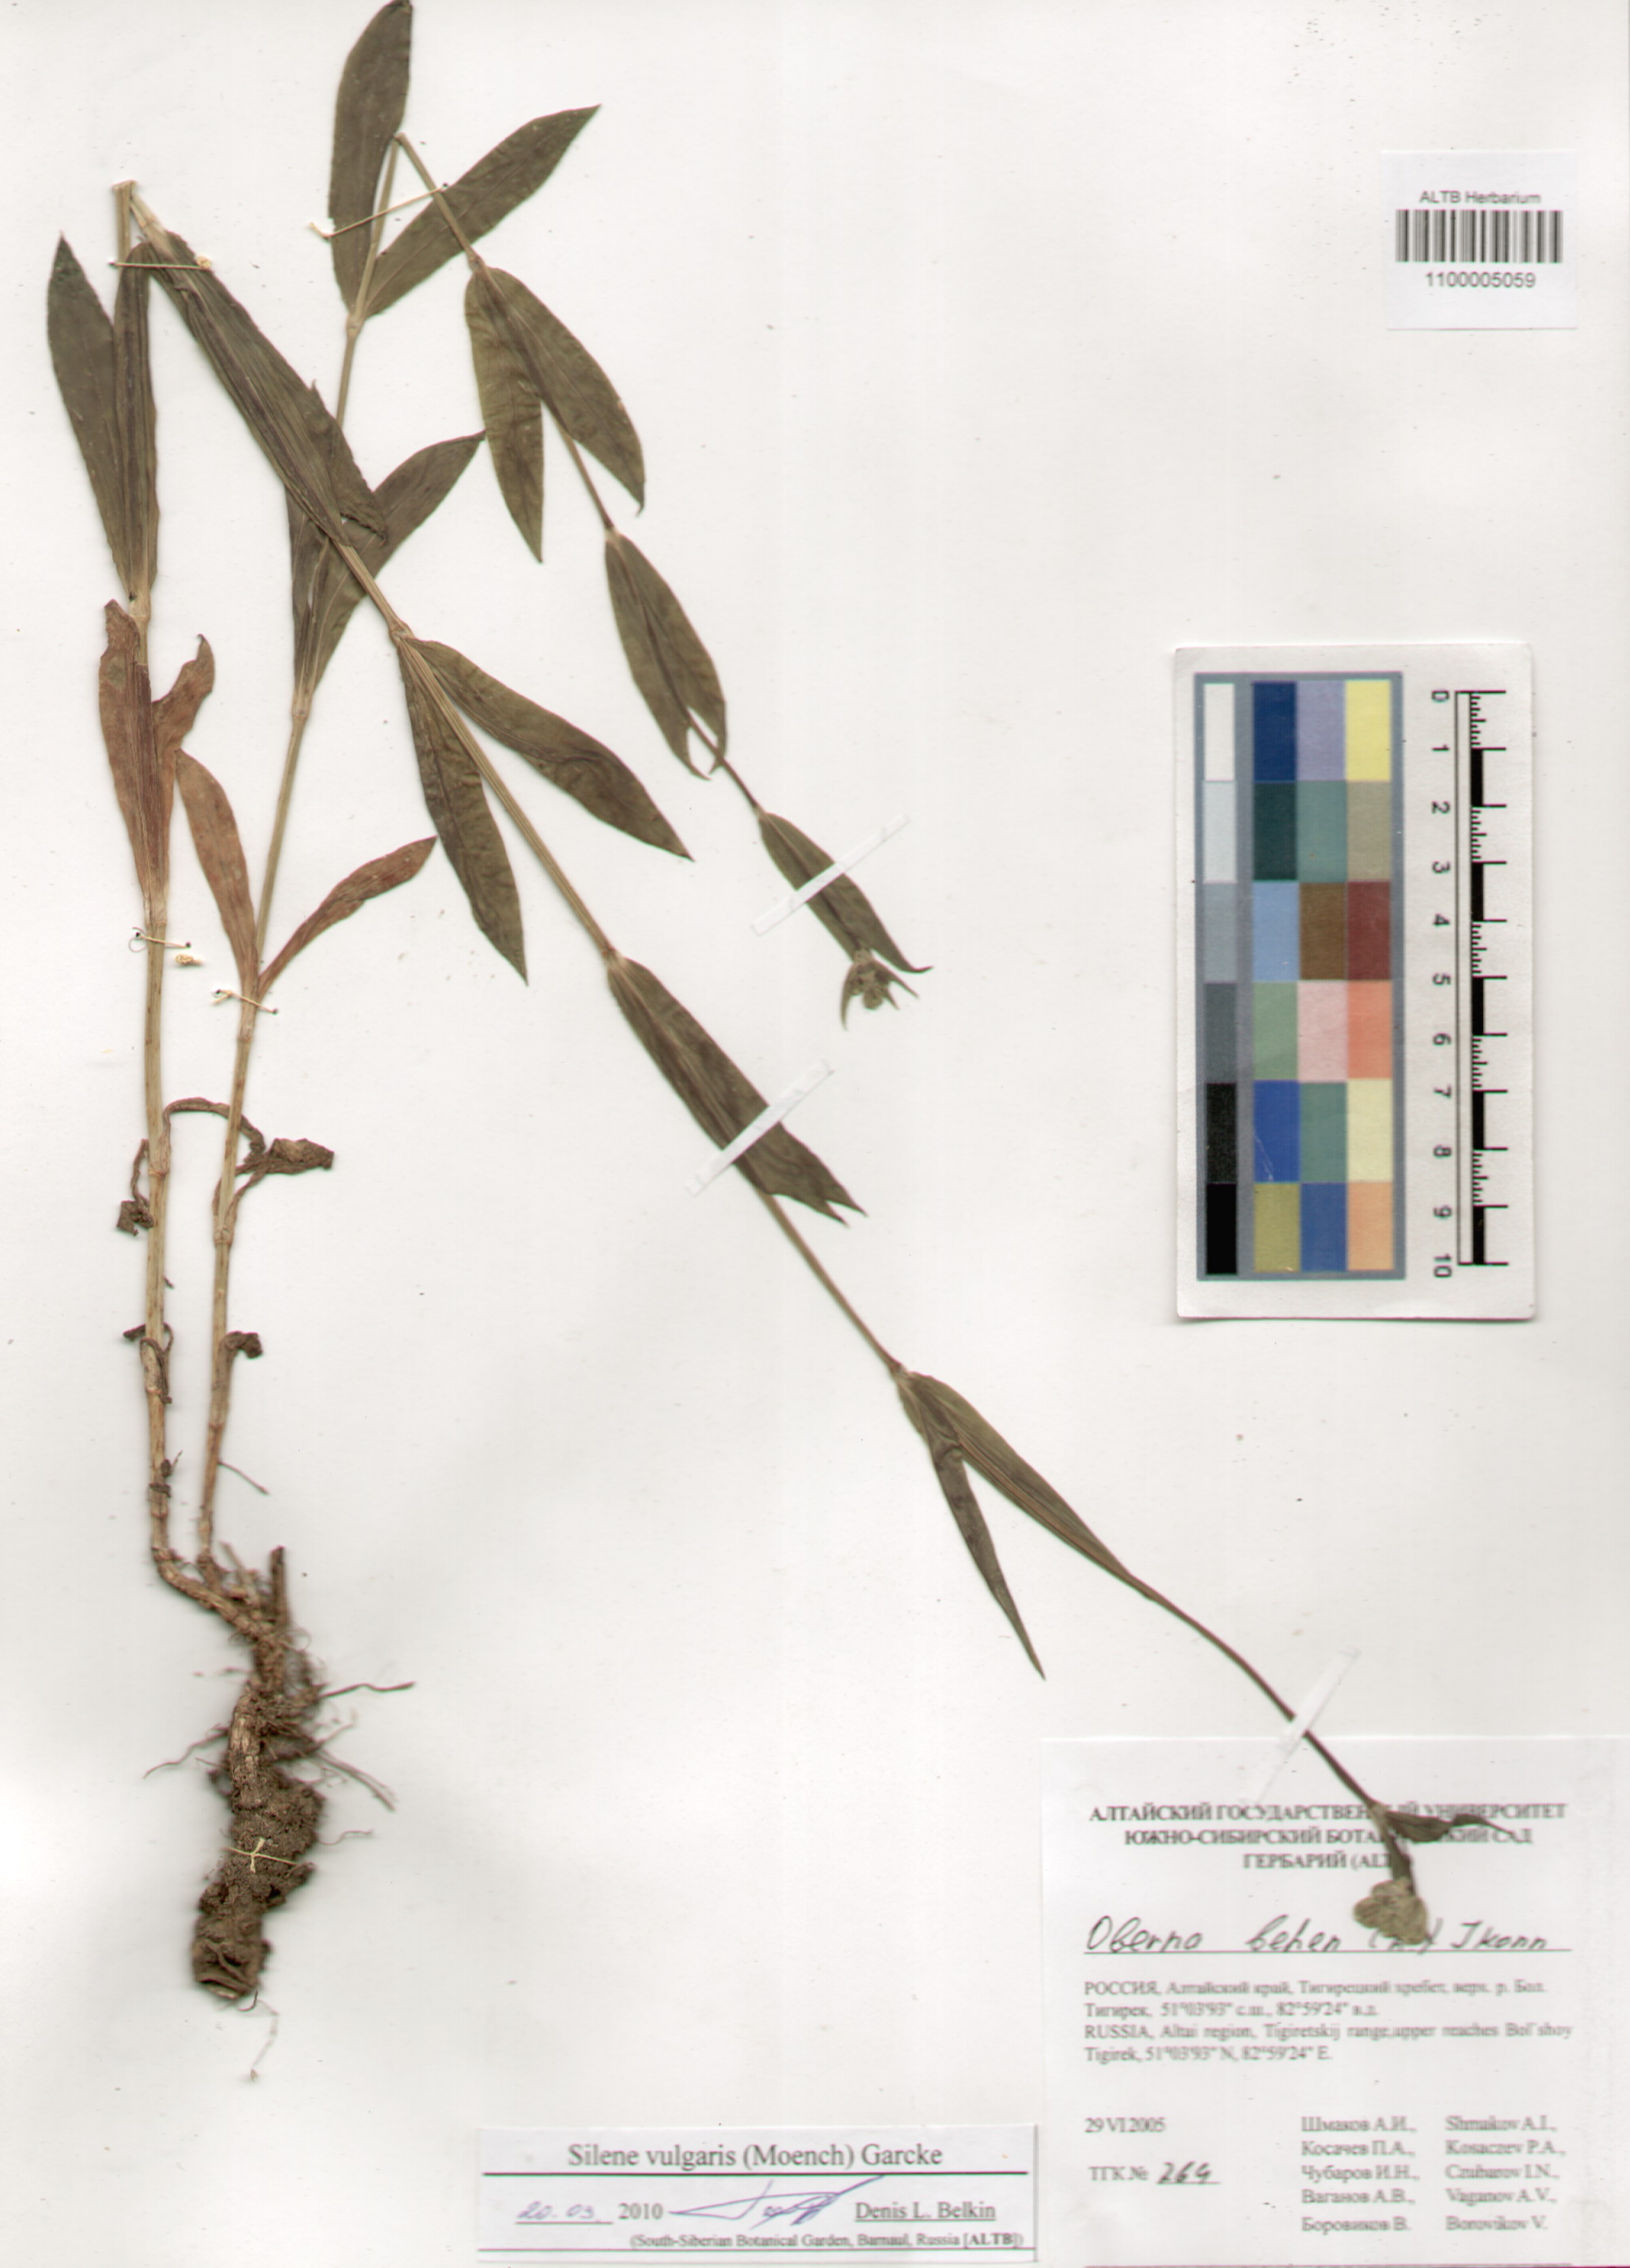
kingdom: Plantae
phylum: Tracheophyta
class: Magnoliopsida
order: Caryophyllales
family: Caryophyllaceae
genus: Silene
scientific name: Silene vulgaris
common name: Bladder campion
